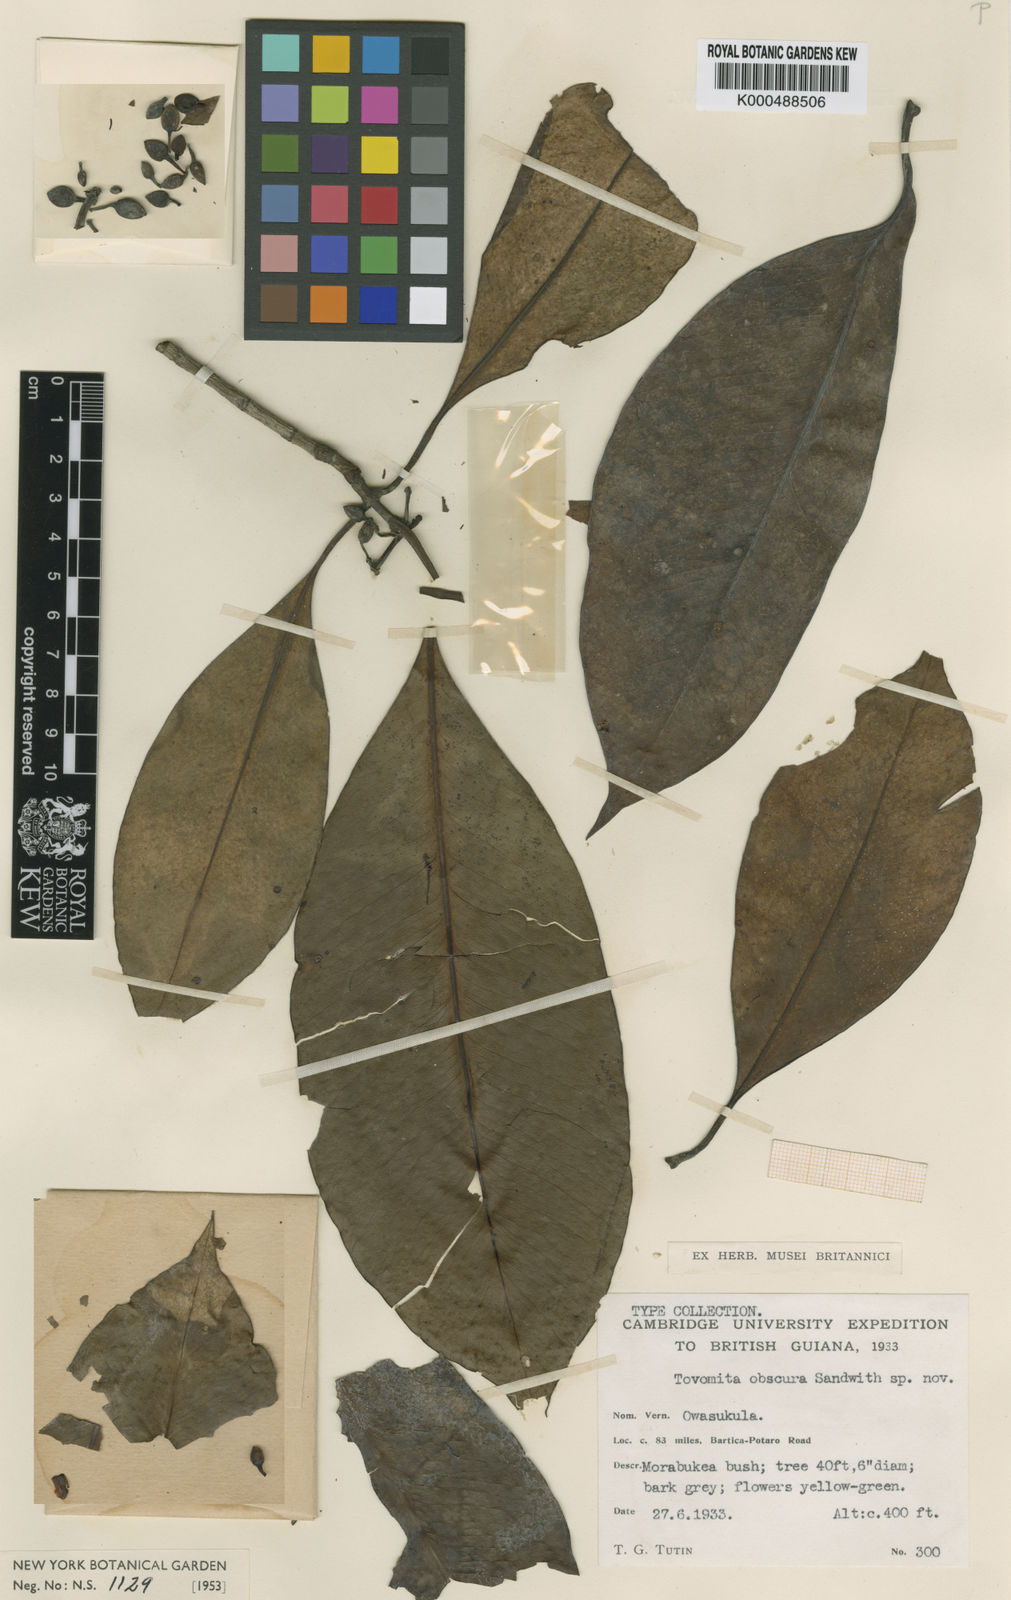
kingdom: Plantae
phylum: Tracheophyta
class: Magnoliopsida
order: Malpighiales
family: Clusiaceae
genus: Tovomita
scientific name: Tovomita obscura
